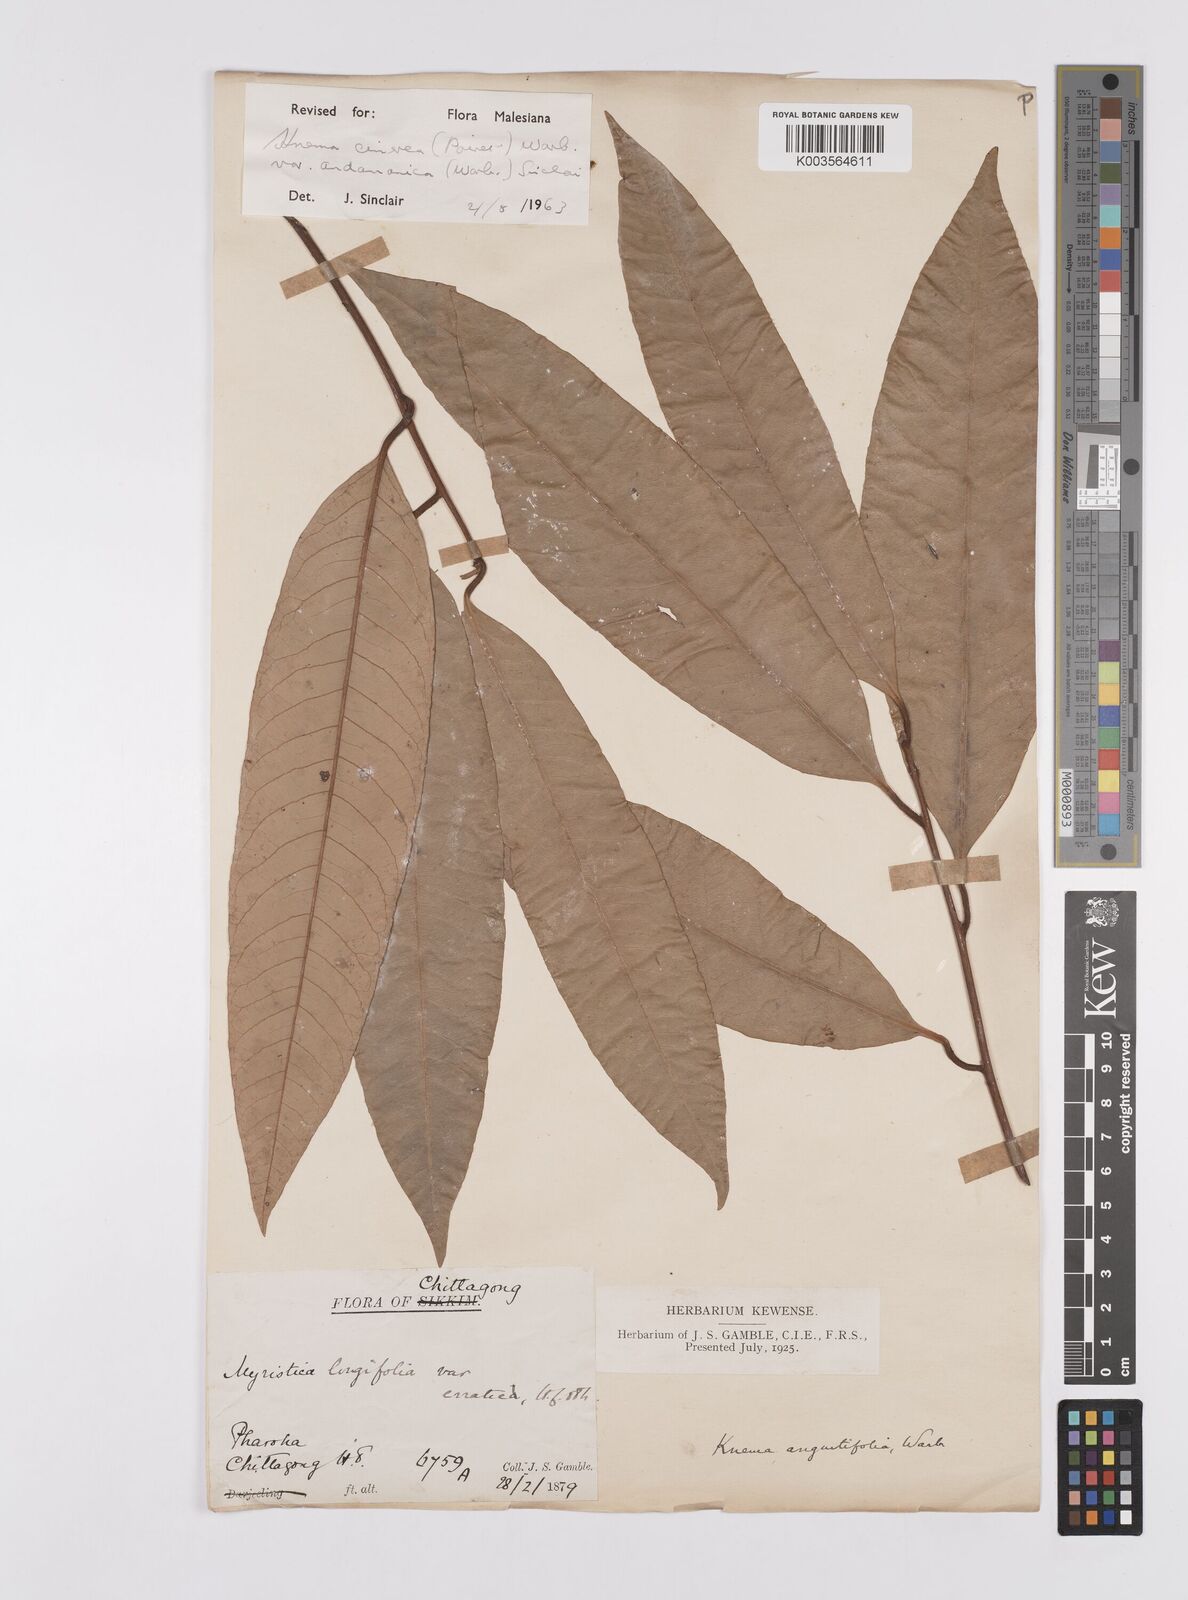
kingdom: Plantae
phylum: Tracheophyta
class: Magnoliopsida
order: Magnoliales
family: Myristicaceae
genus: Knema
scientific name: Knema
